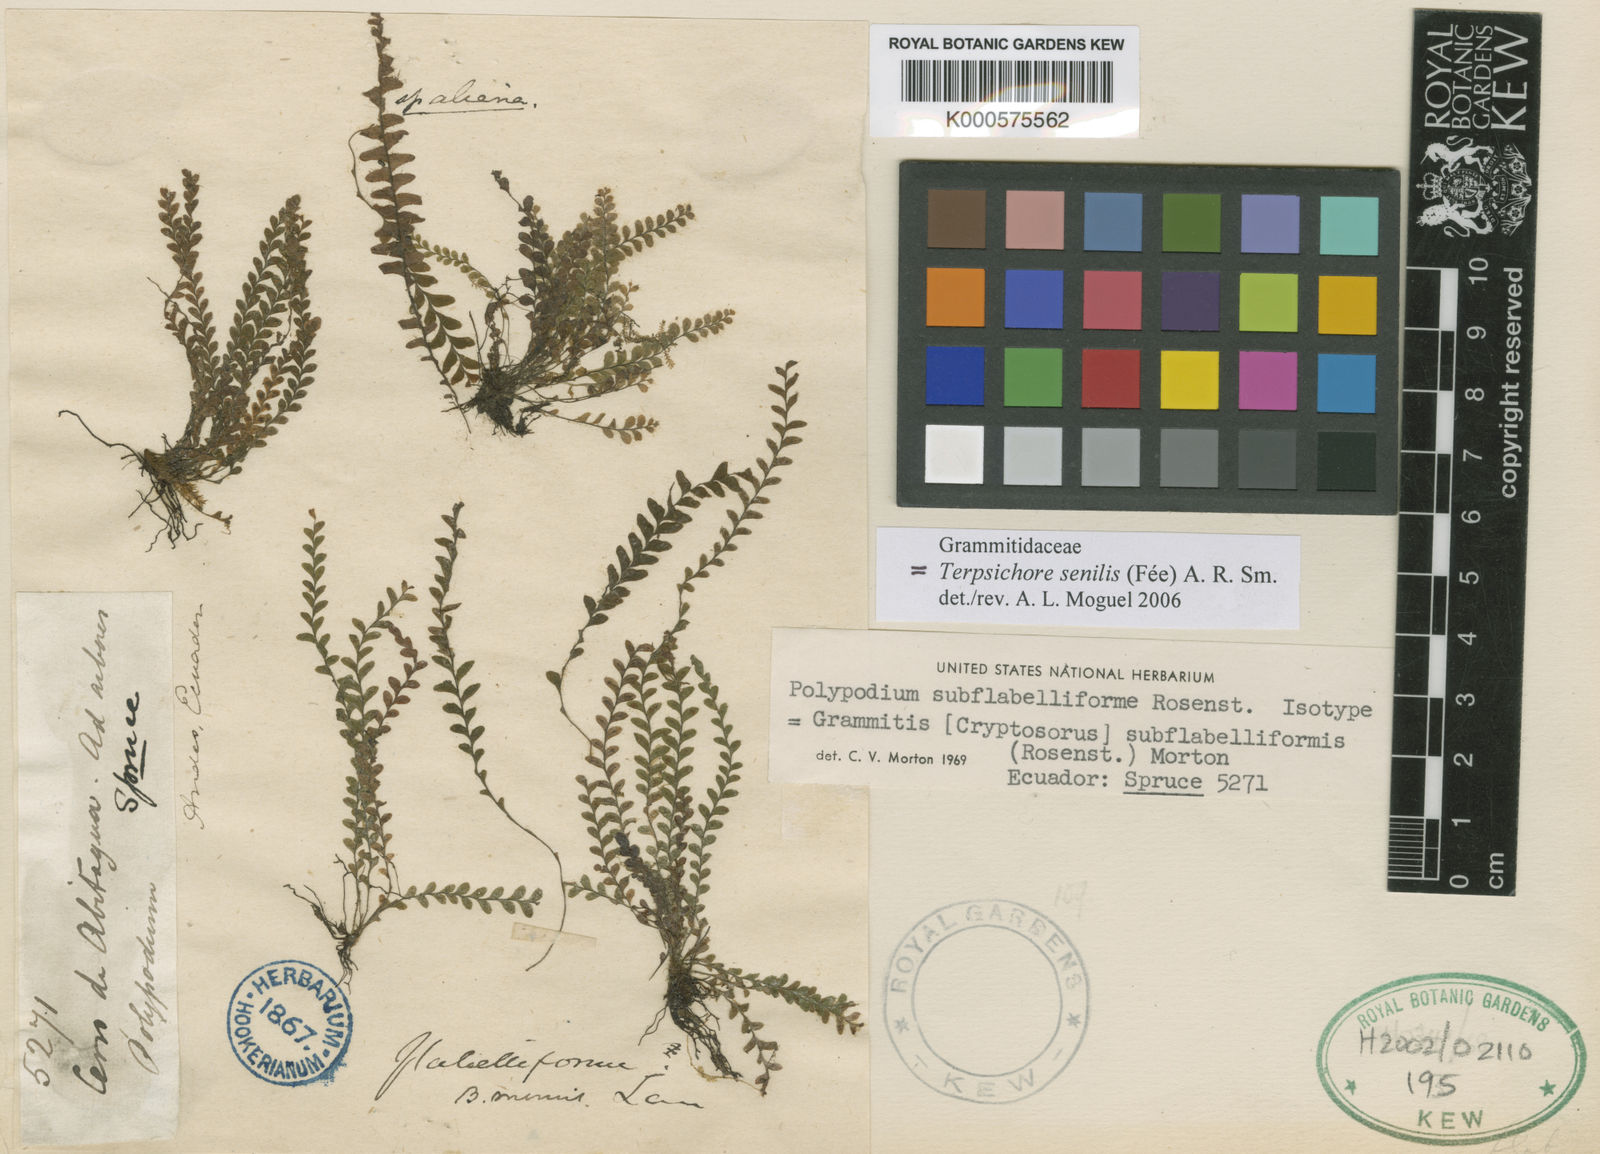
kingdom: Plantae
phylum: Tracheophyta
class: Polypodiopsida
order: Polypodiales
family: Polypodiaceae
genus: Terpsichore
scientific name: Terpsichore
